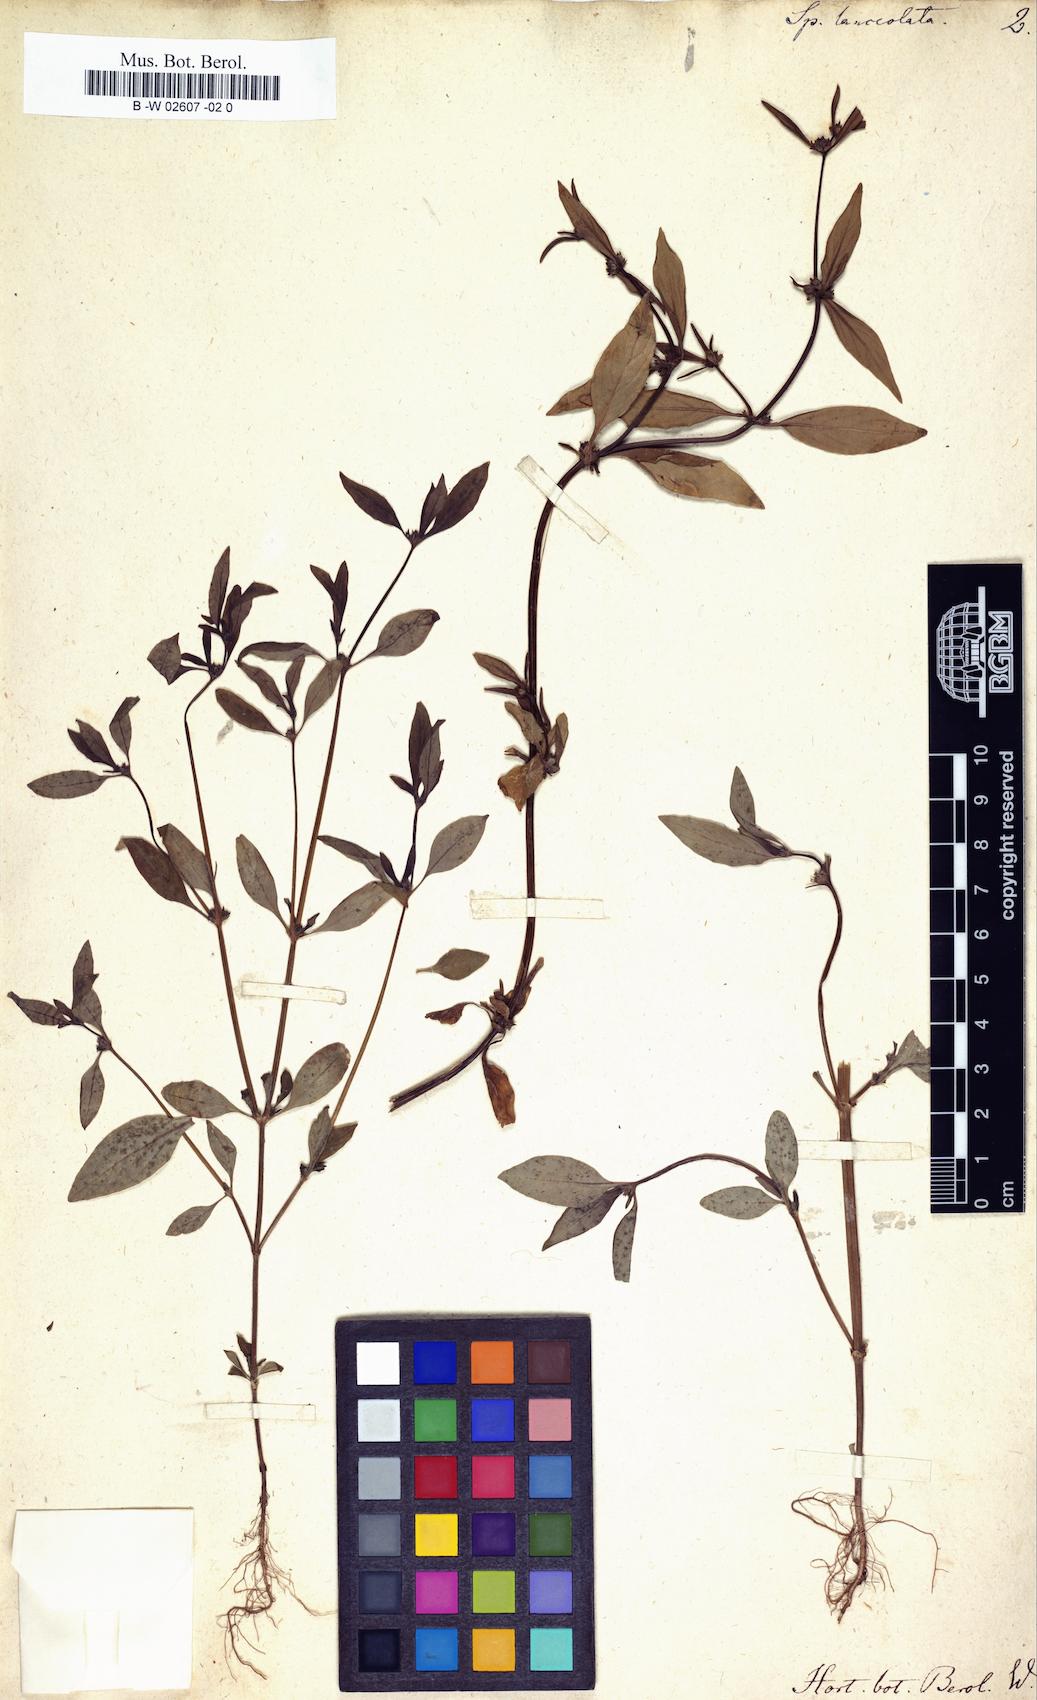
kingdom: Plantae
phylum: Tracheophyta
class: Magnoliopsida
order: Gentianales
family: Rubiaceae
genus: Spermacoce
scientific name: Spermacoce remota
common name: Woodland false buttonweed
